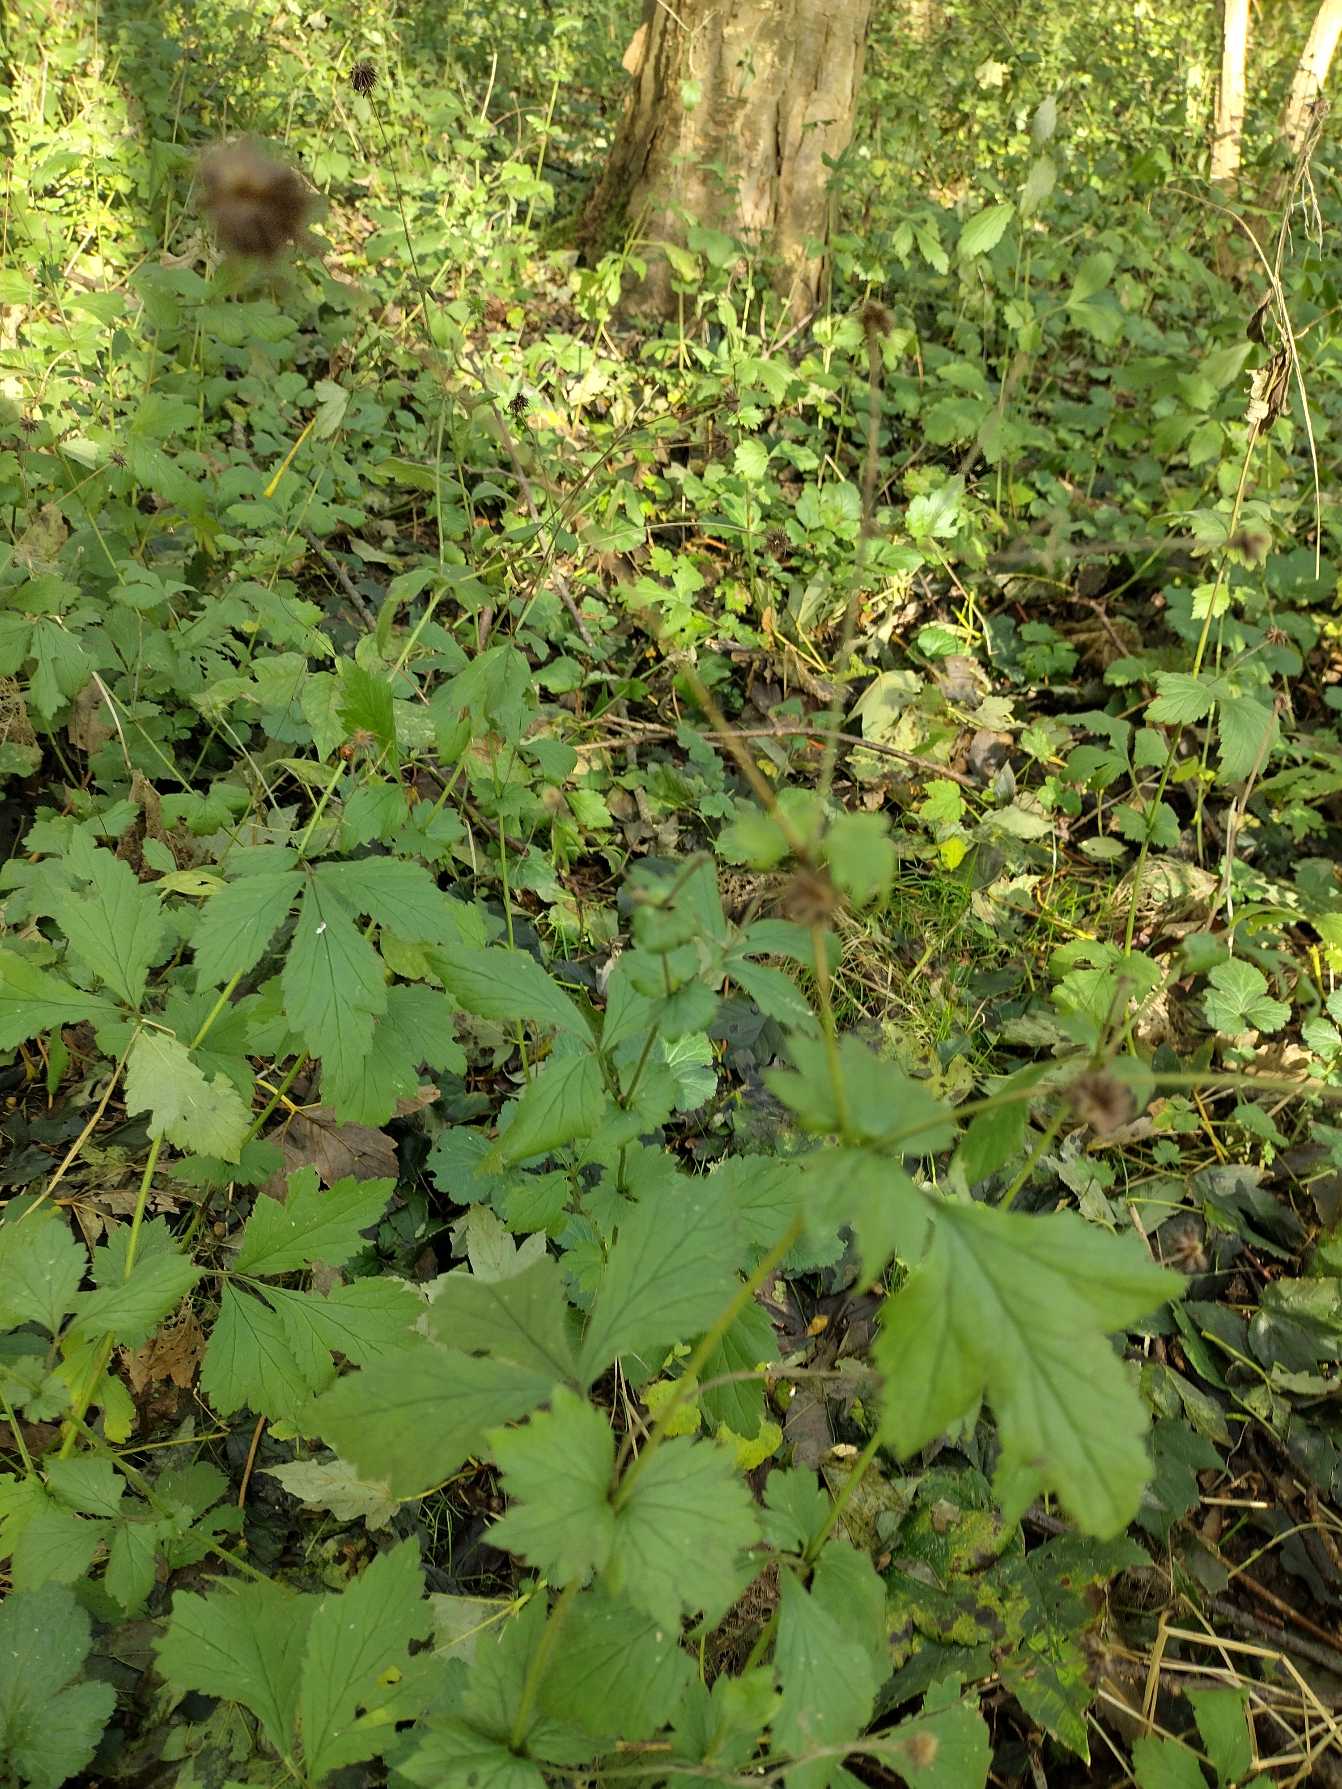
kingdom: Plantae
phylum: Tracheophyta
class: Magnoliopsida
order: Rosales
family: Rosaceae
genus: Geum
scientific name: Geum urbanum
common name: Feber-nellikerod
